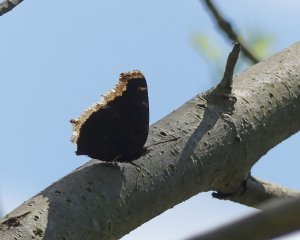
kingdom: Animalia
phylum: Arthropoda
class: Insecta
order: Lepidoptera
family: Nymphalidae
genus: Nymphalis
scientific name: Nymphalis antiopa
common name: Mourning Cloak
